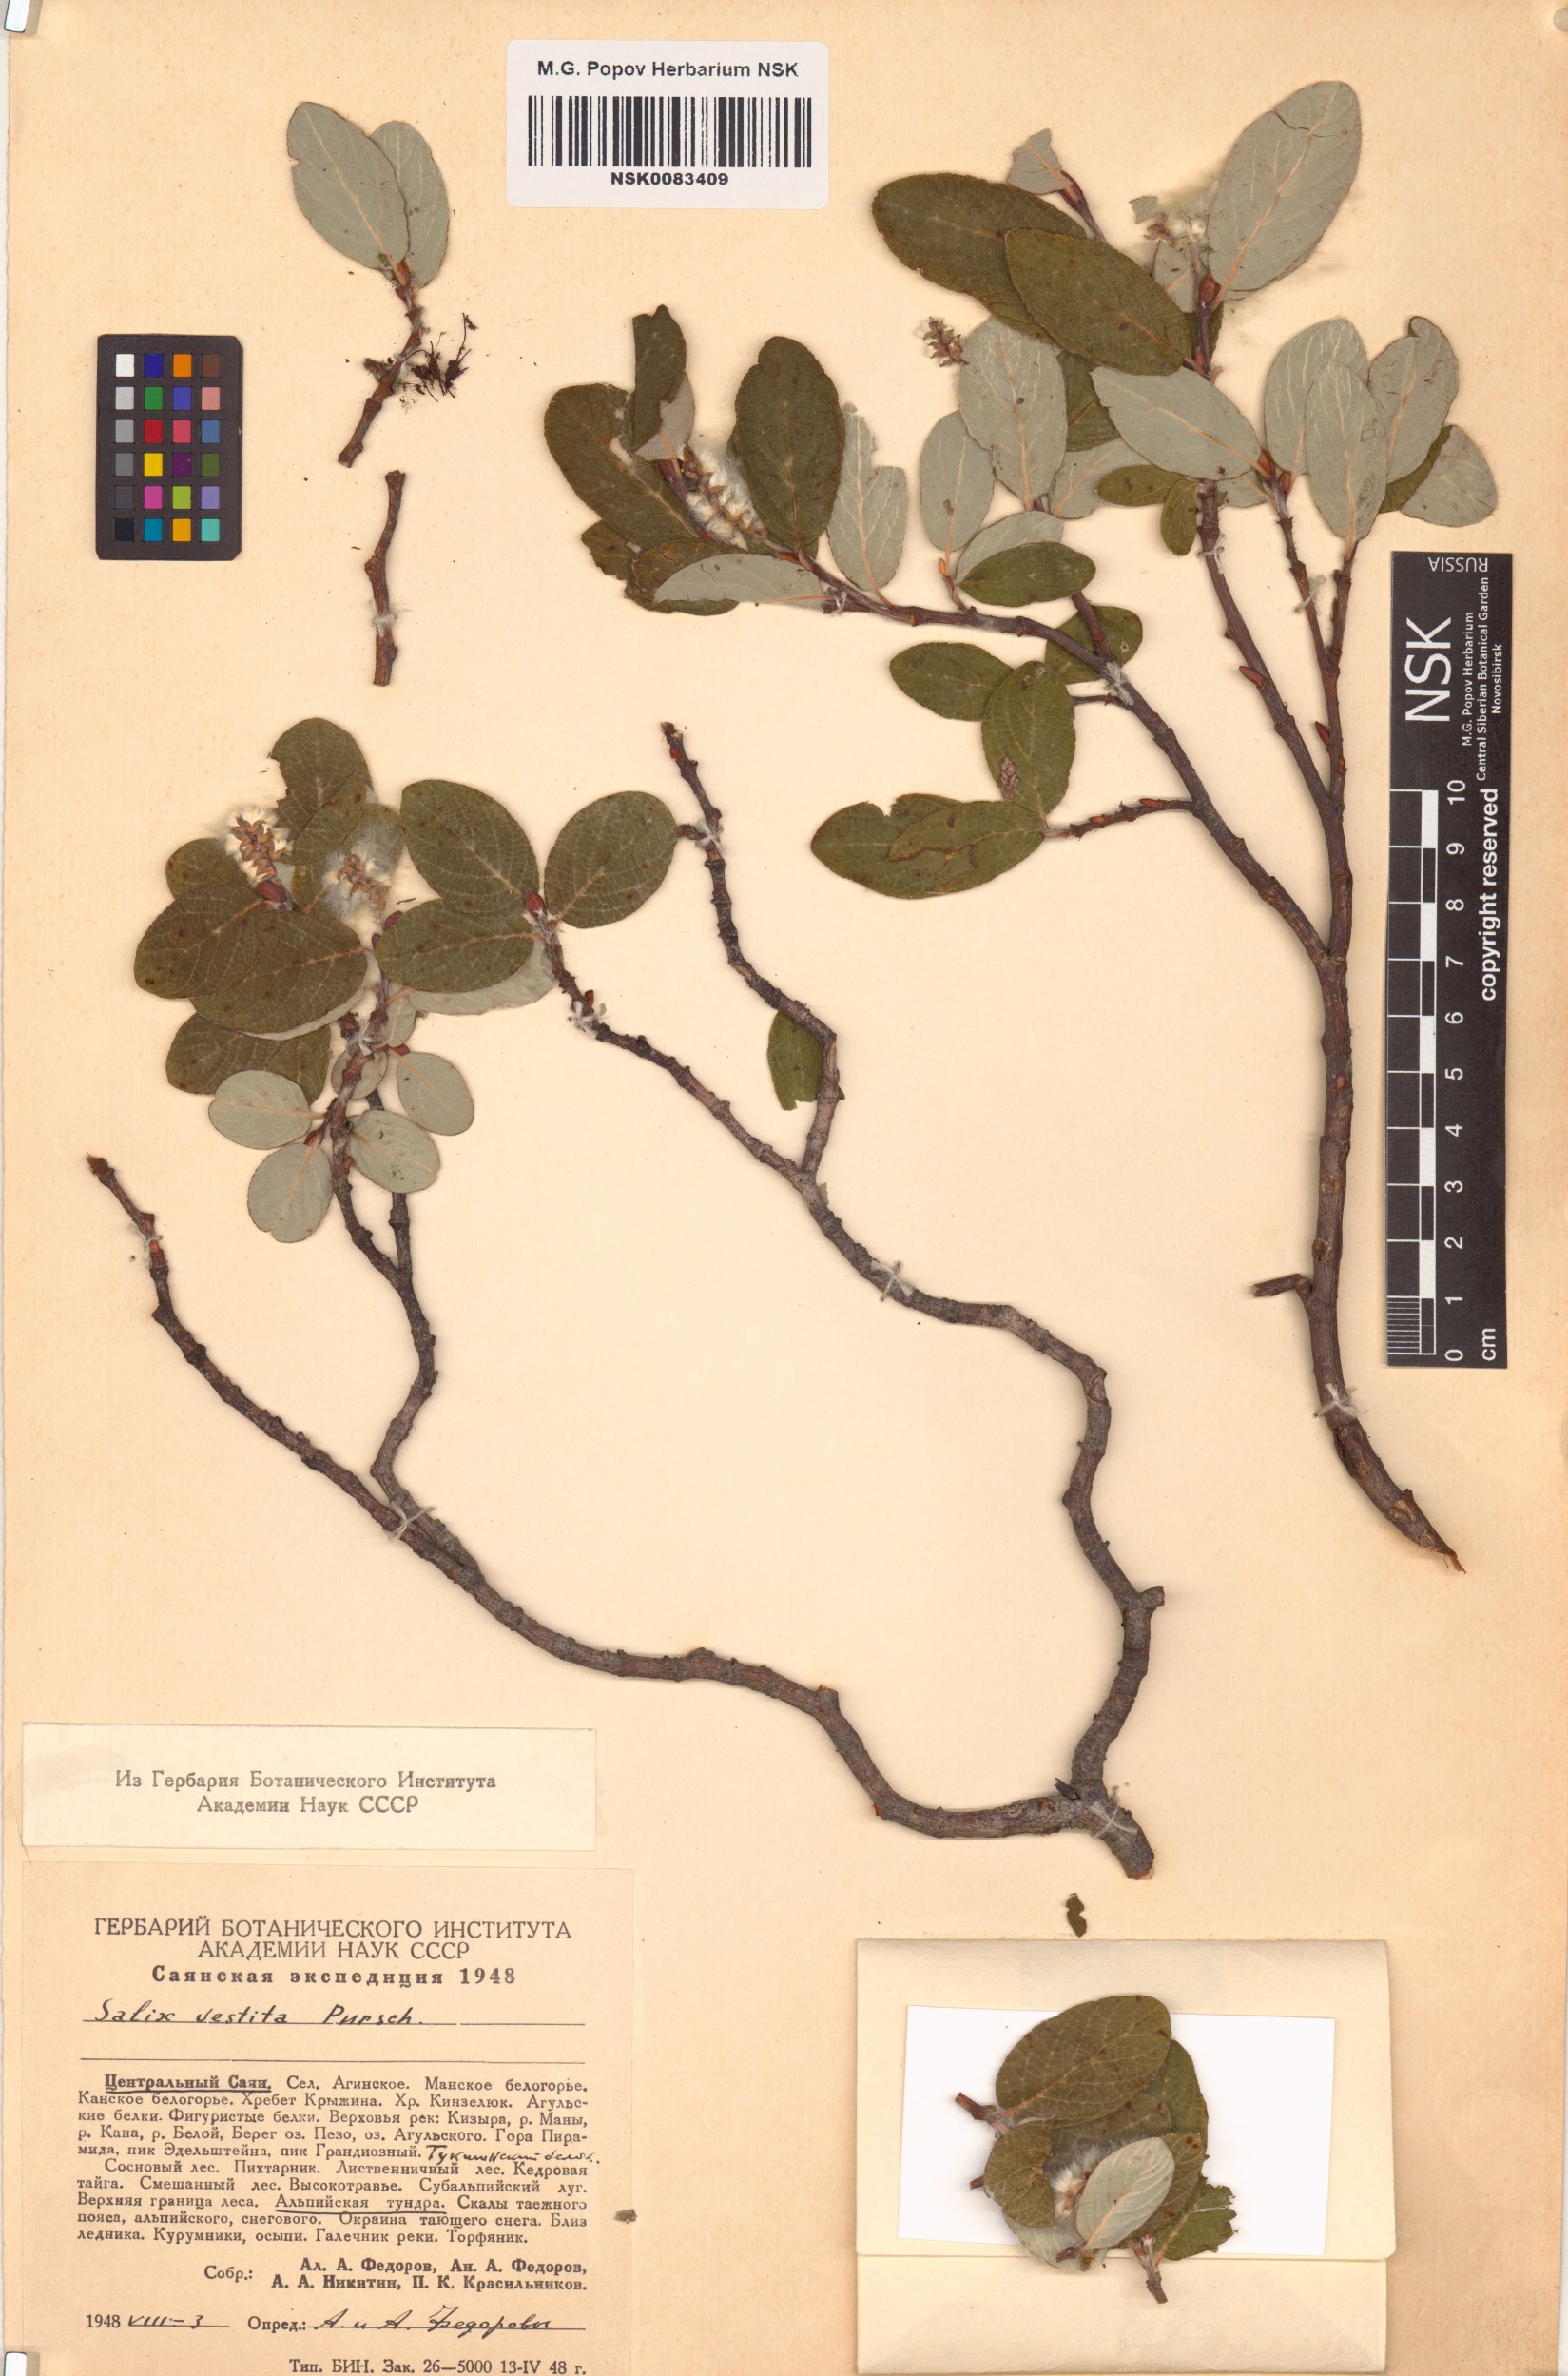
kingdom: Plantae
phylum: Tracheophyta
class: Magnoliopsida
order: Malpighiales
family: Salicaceae
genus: Salix
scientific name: Salix vestita
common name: Hairy willow
